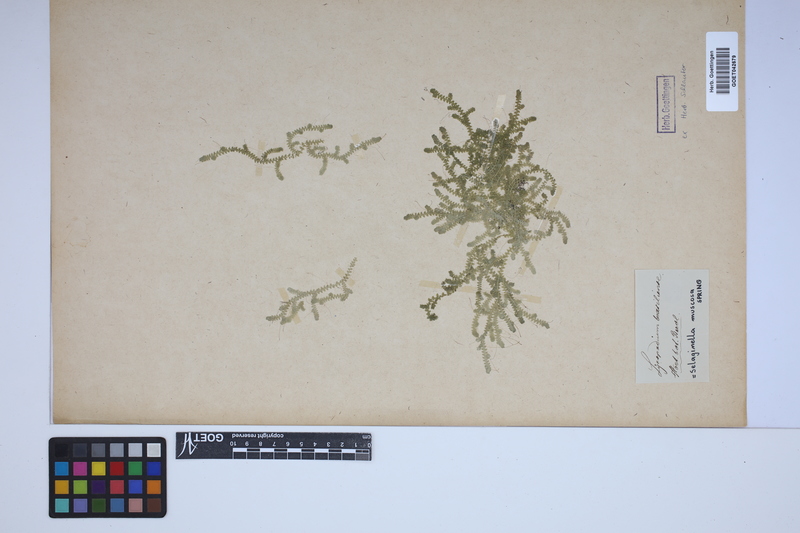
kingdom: Plantae
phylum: Tracheophyta
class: Lycopodiopsida
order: Selaginellales
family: Selaginellaceae
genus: Selaginella
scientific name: Selaginella muscosa
